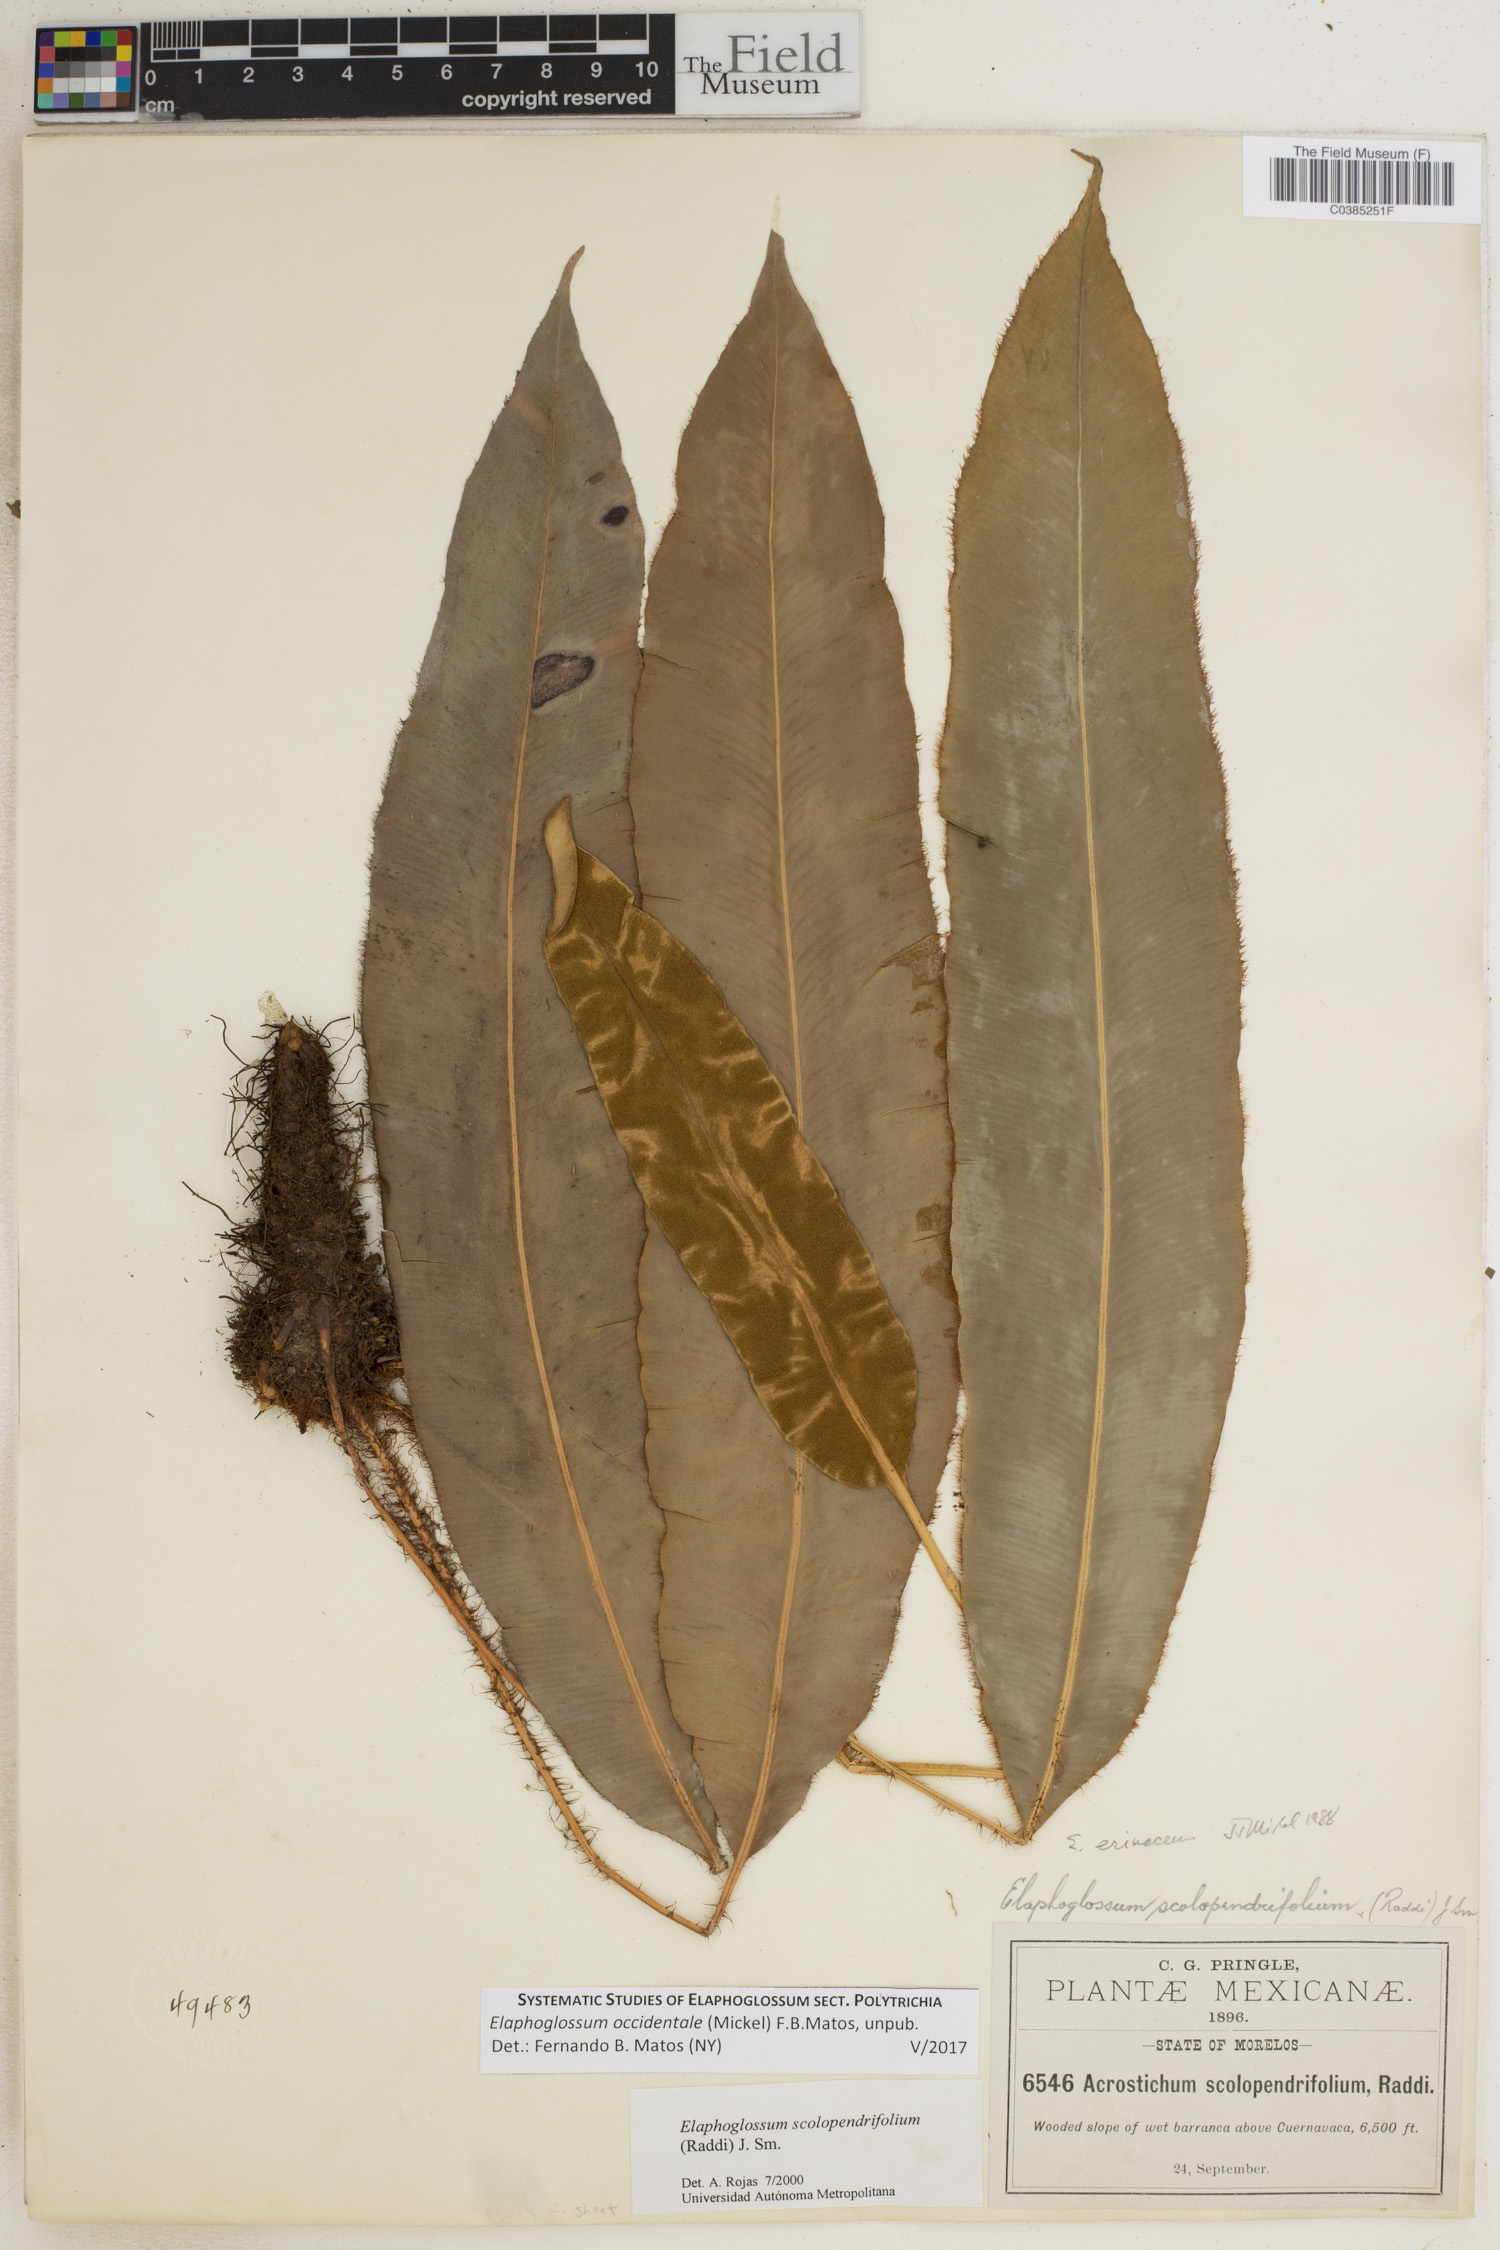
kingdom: Plantae
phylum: Tracheophyta
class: Polypodiopsida
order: Polypodiales
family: Dryopteridaceae
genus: Elaphoglossum
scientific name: Elaphoglossum scolopendrifolium
